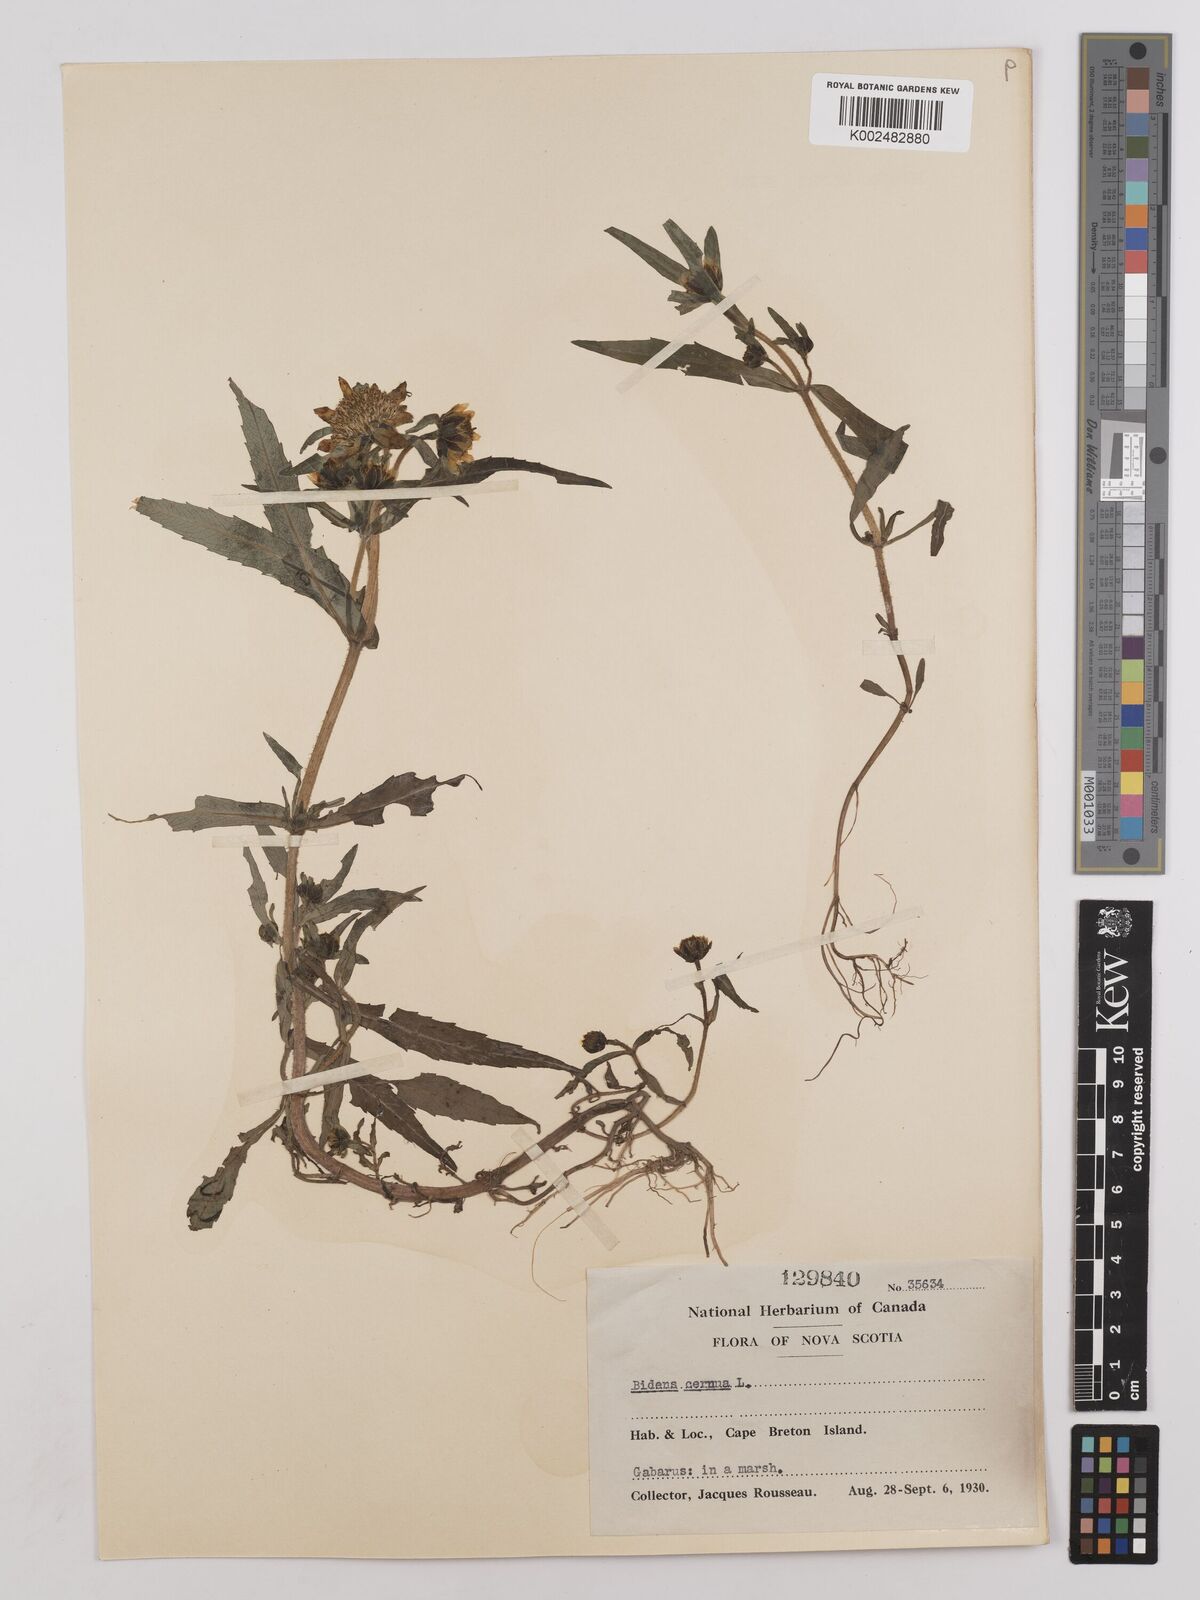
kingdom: Plantae
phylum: Tracheophyta
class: Magnoliopsida
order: Asterales
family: Asteraceae
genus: Bidens
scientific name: Bidens
